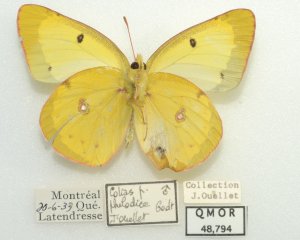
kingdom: Animalia
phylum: Arthropoda
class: Insecta
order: Lepidoptera
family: Pieridae
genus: Colias
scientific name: Colias philodice
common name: Clouded Sulphur
